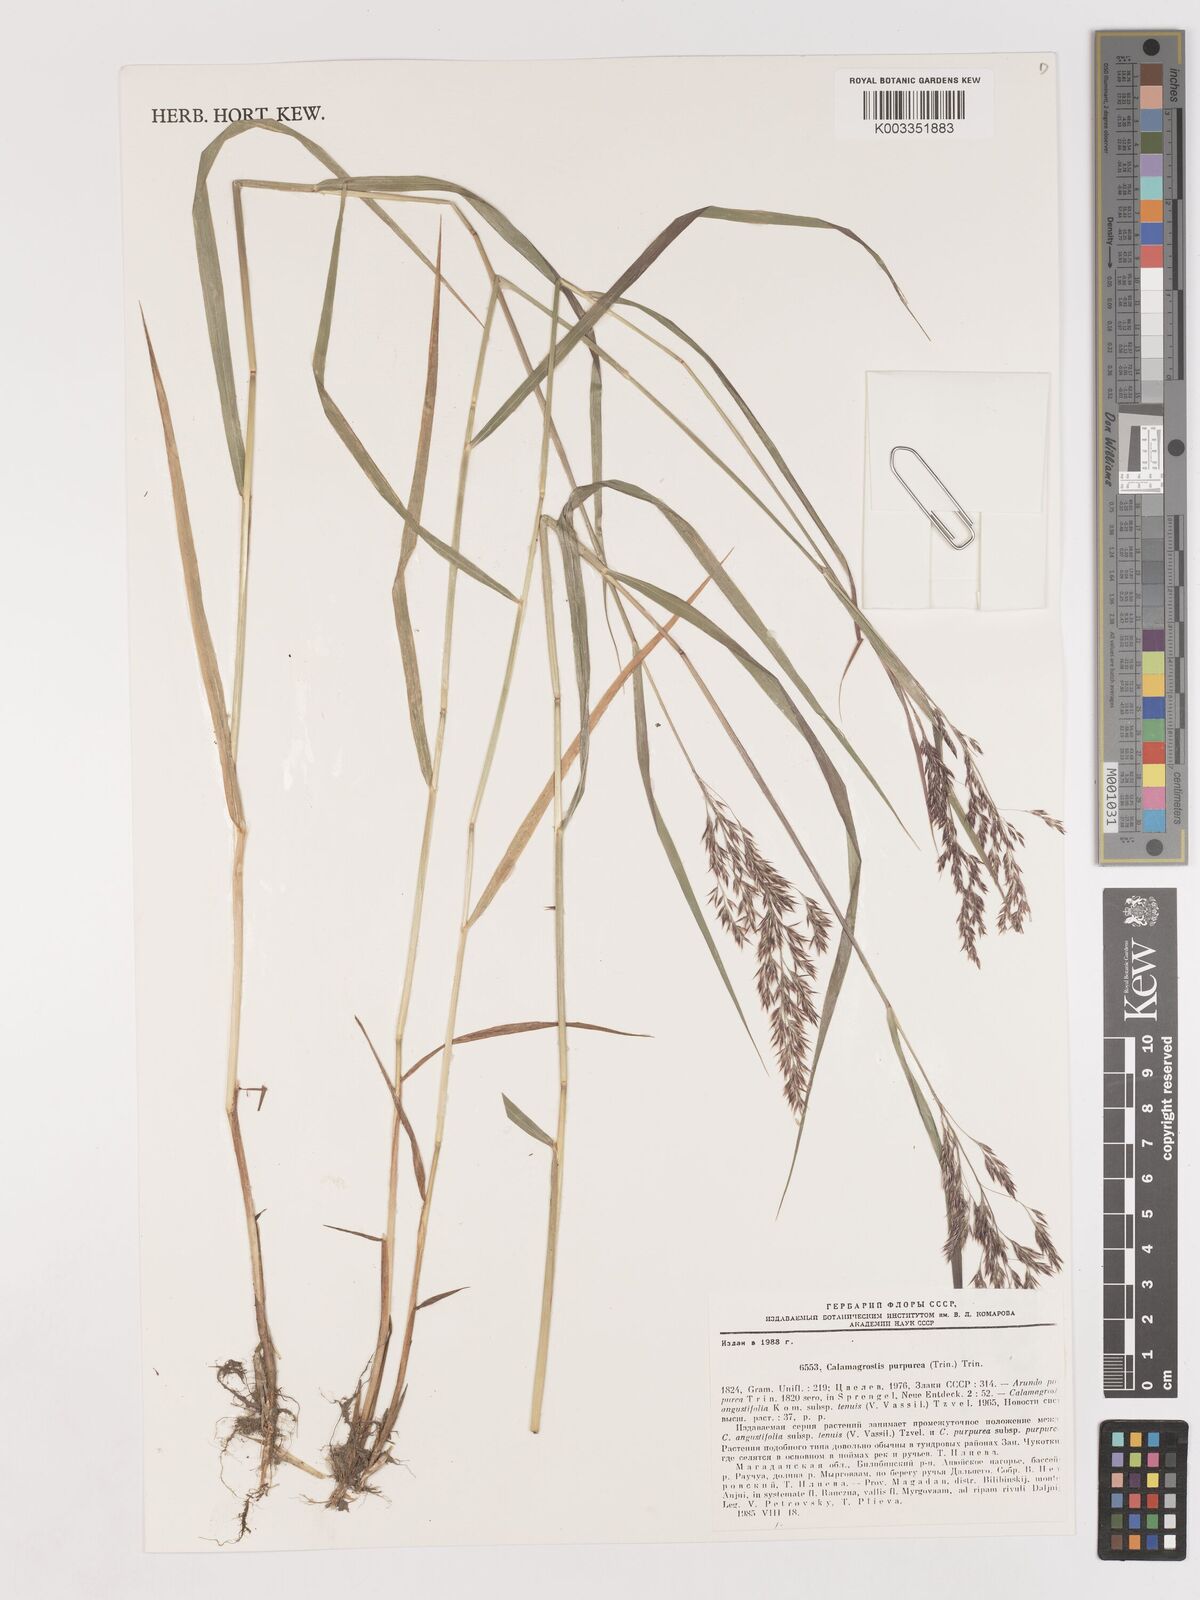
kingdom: Plantae
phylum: Tracheophyta
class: Liliopsida
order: Poales
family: Poaceae
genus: Calamagrostis
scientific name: Calamagrostis purpurea
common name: Scandinavian small-reed
